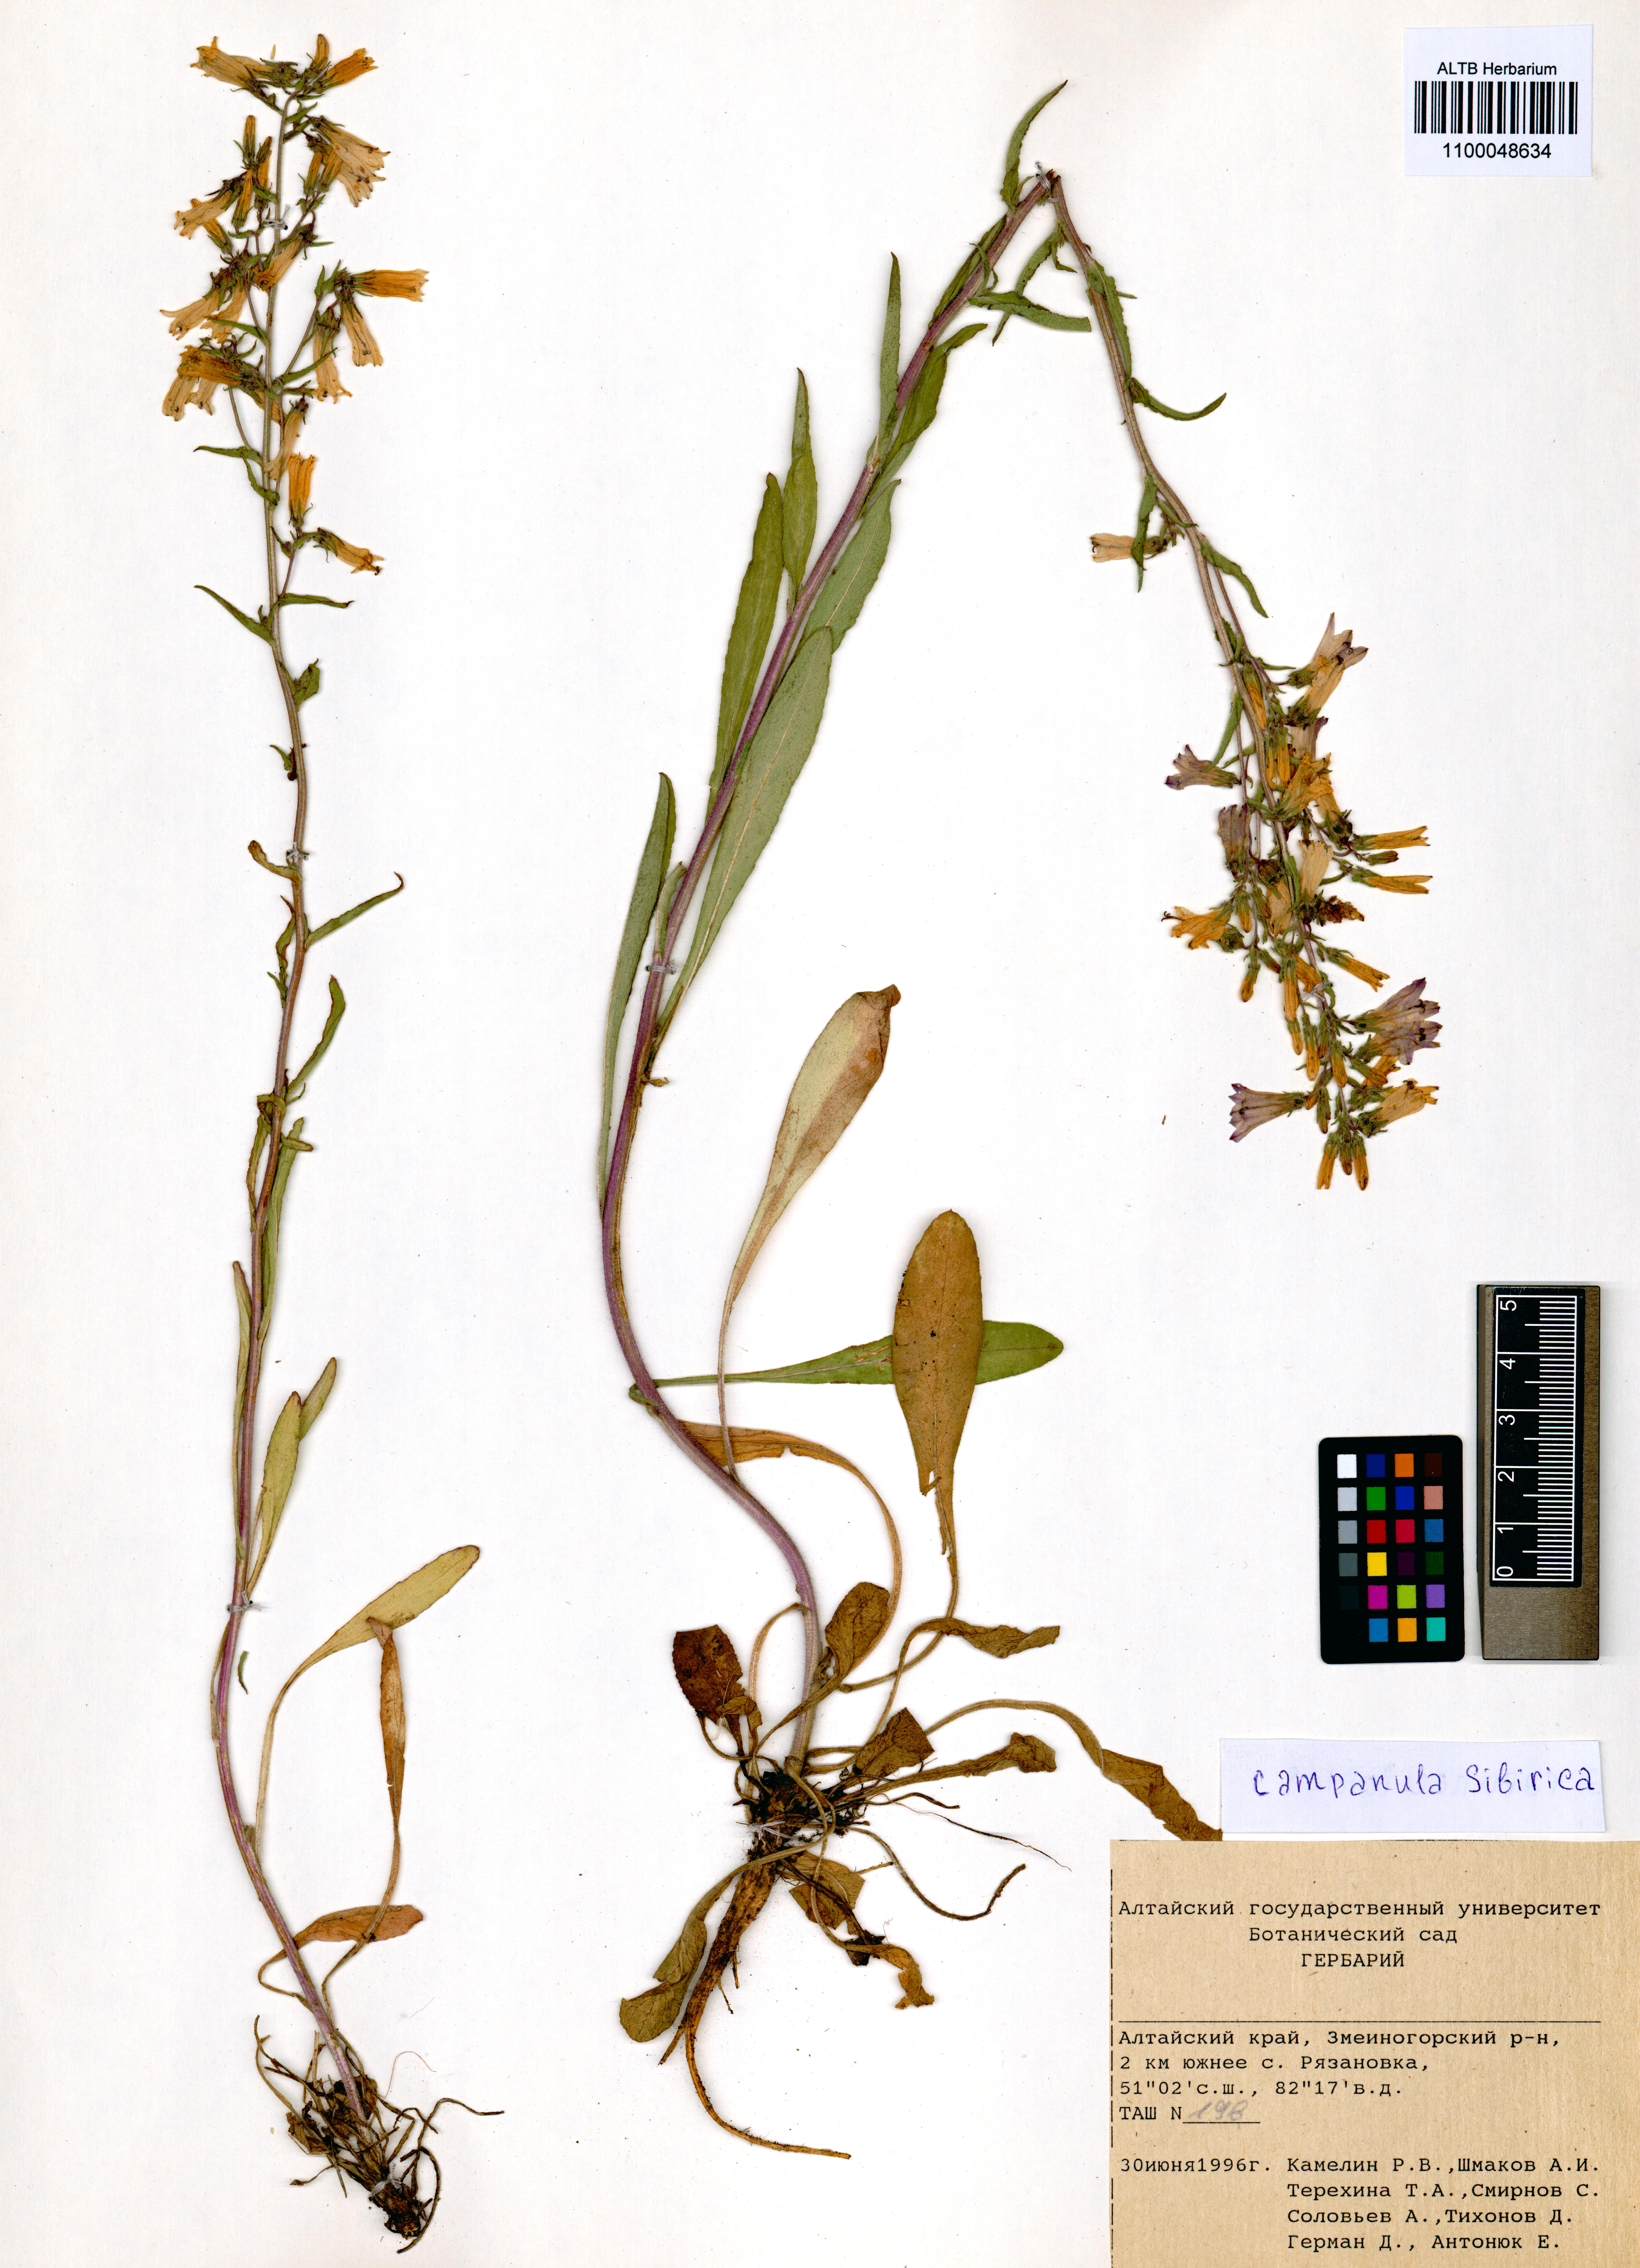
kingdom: Plantae
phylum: Tracheophyta
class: Magnoliopsida
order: Asterales
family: Campanulaceae
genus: Campanula
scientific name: Campanula sibirica
